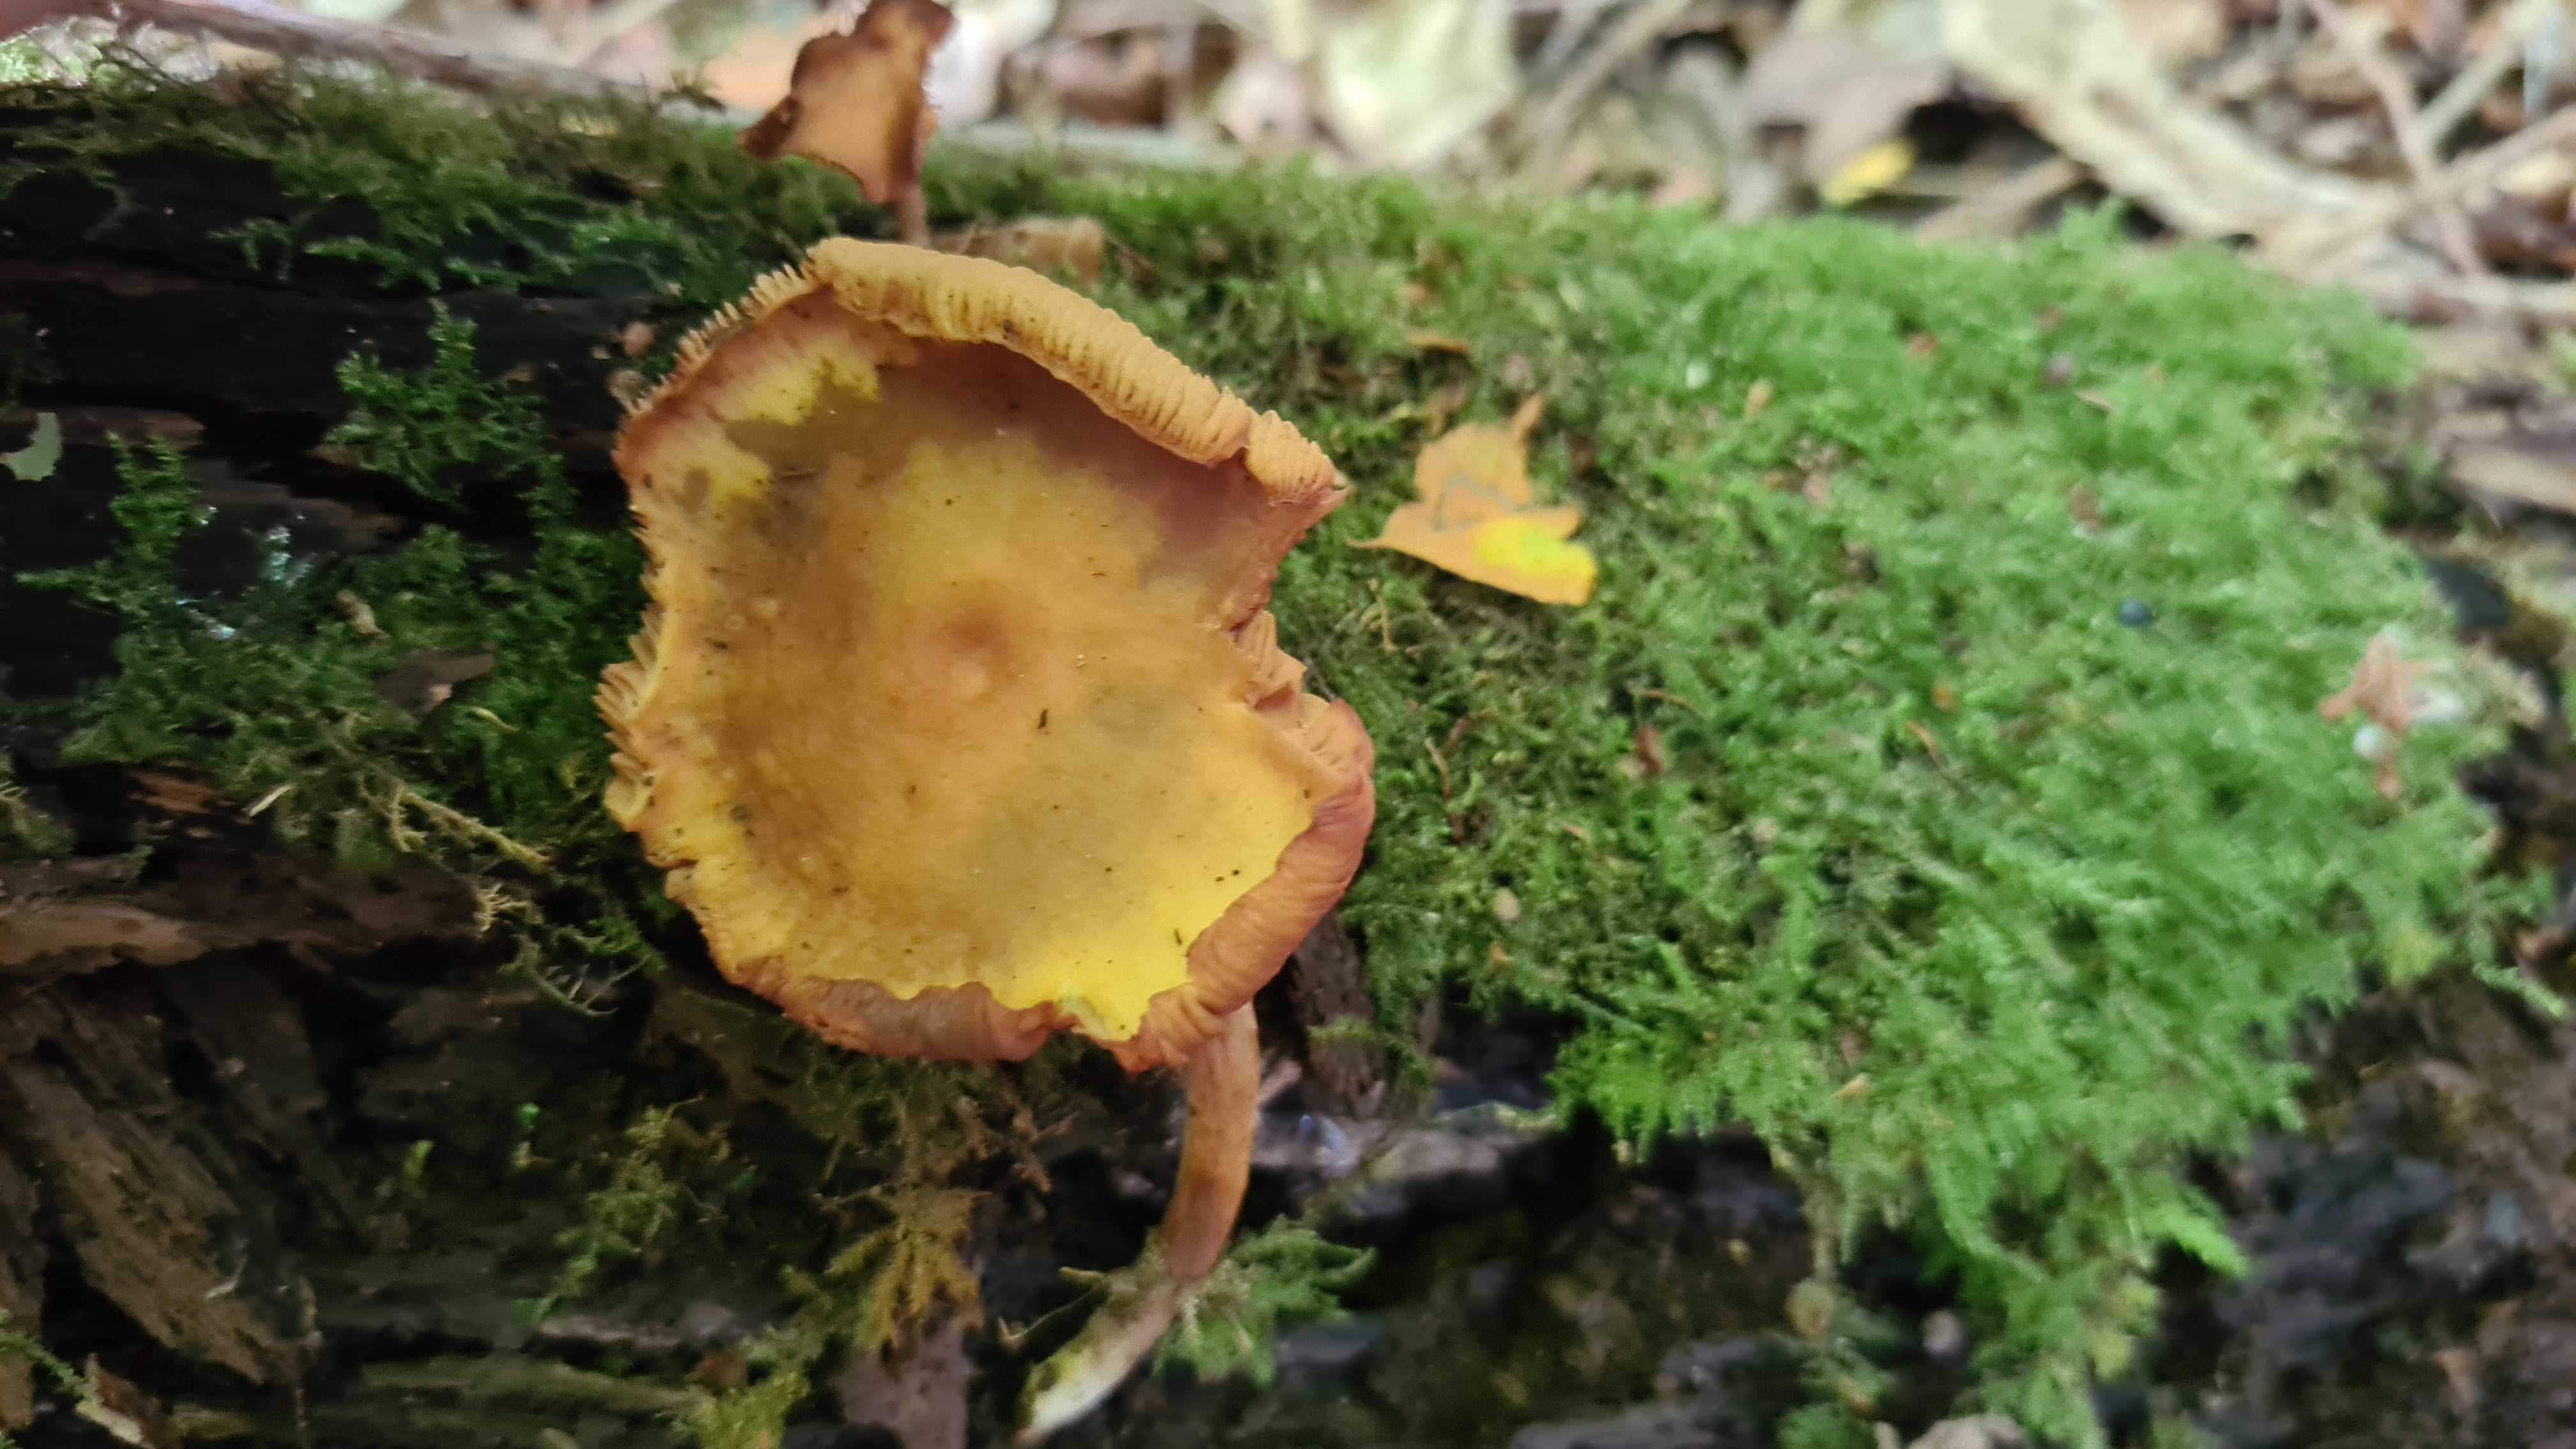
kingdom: Fungi
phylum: Basidiomycota
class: Agaricomycetes
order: Agaricales
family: Hymenogastraceae
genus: Galerina
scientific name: Galerina marginata
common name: randbæltet hjelmhat
